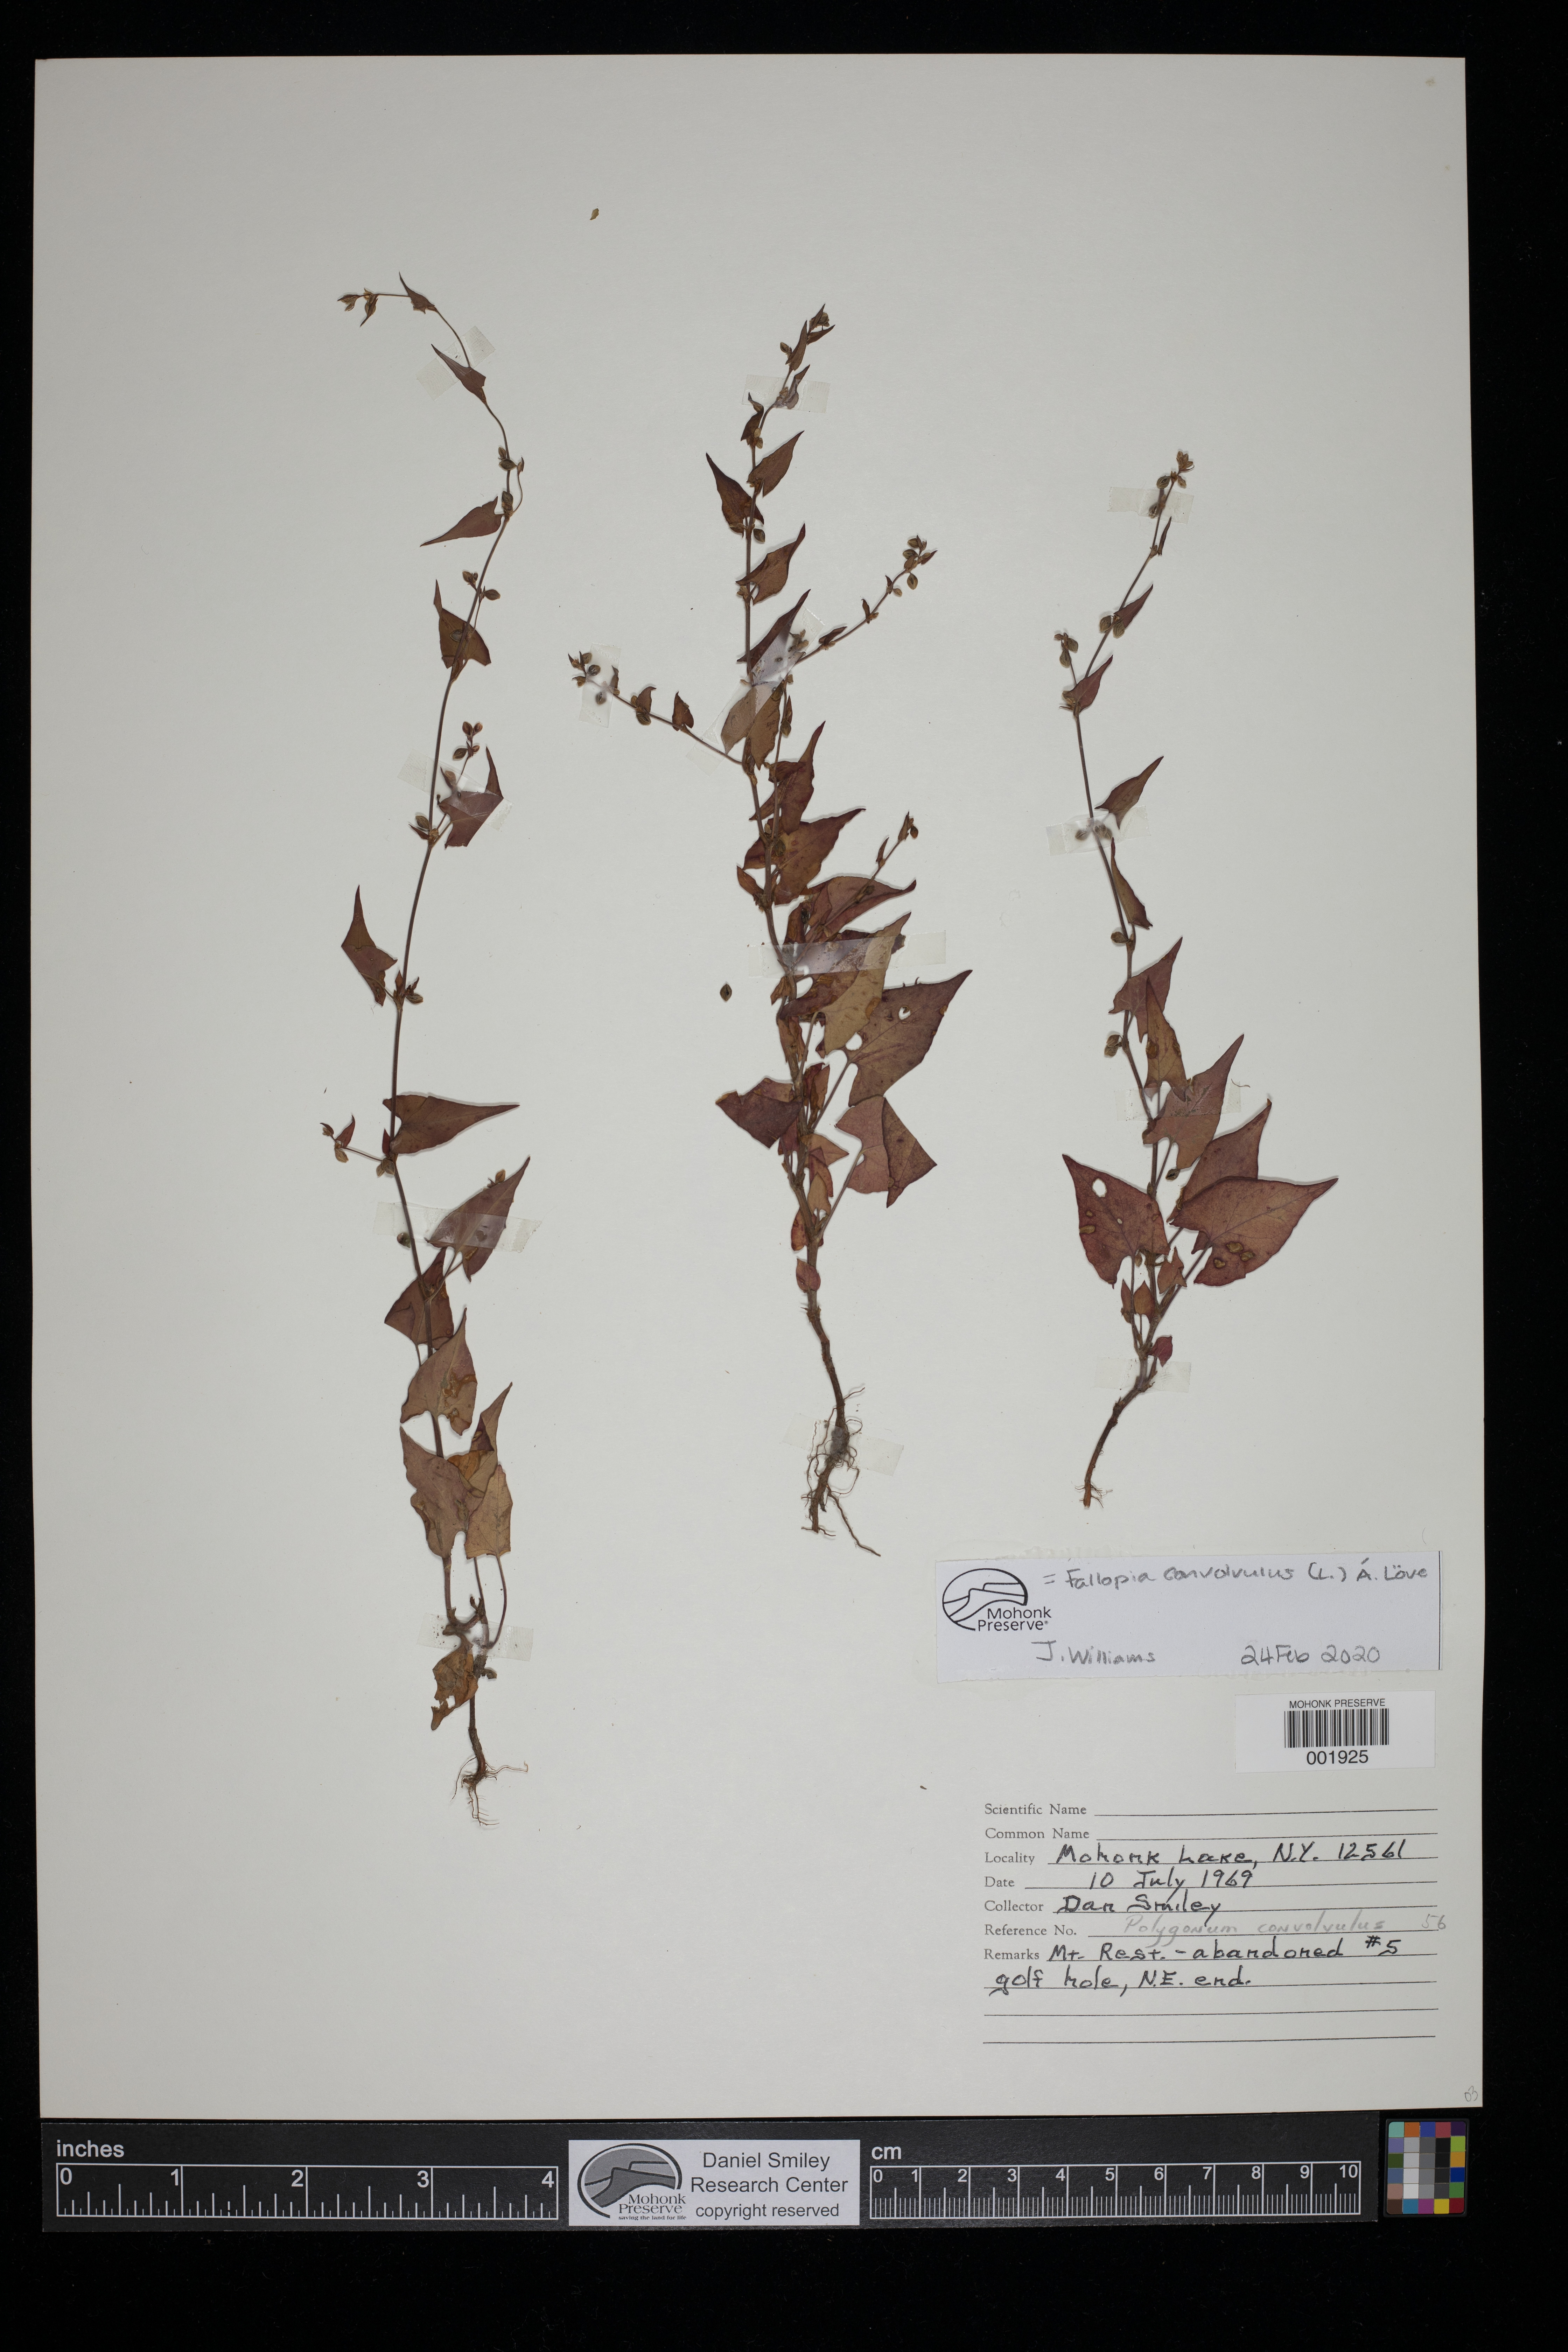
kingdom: Plantae
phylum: Tracheophyta
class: Magnoliopsida
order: Caryophyllales
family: Polygonaceae
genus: Fallopia
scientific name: Fallopia convolvulus
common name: Black bindweed
